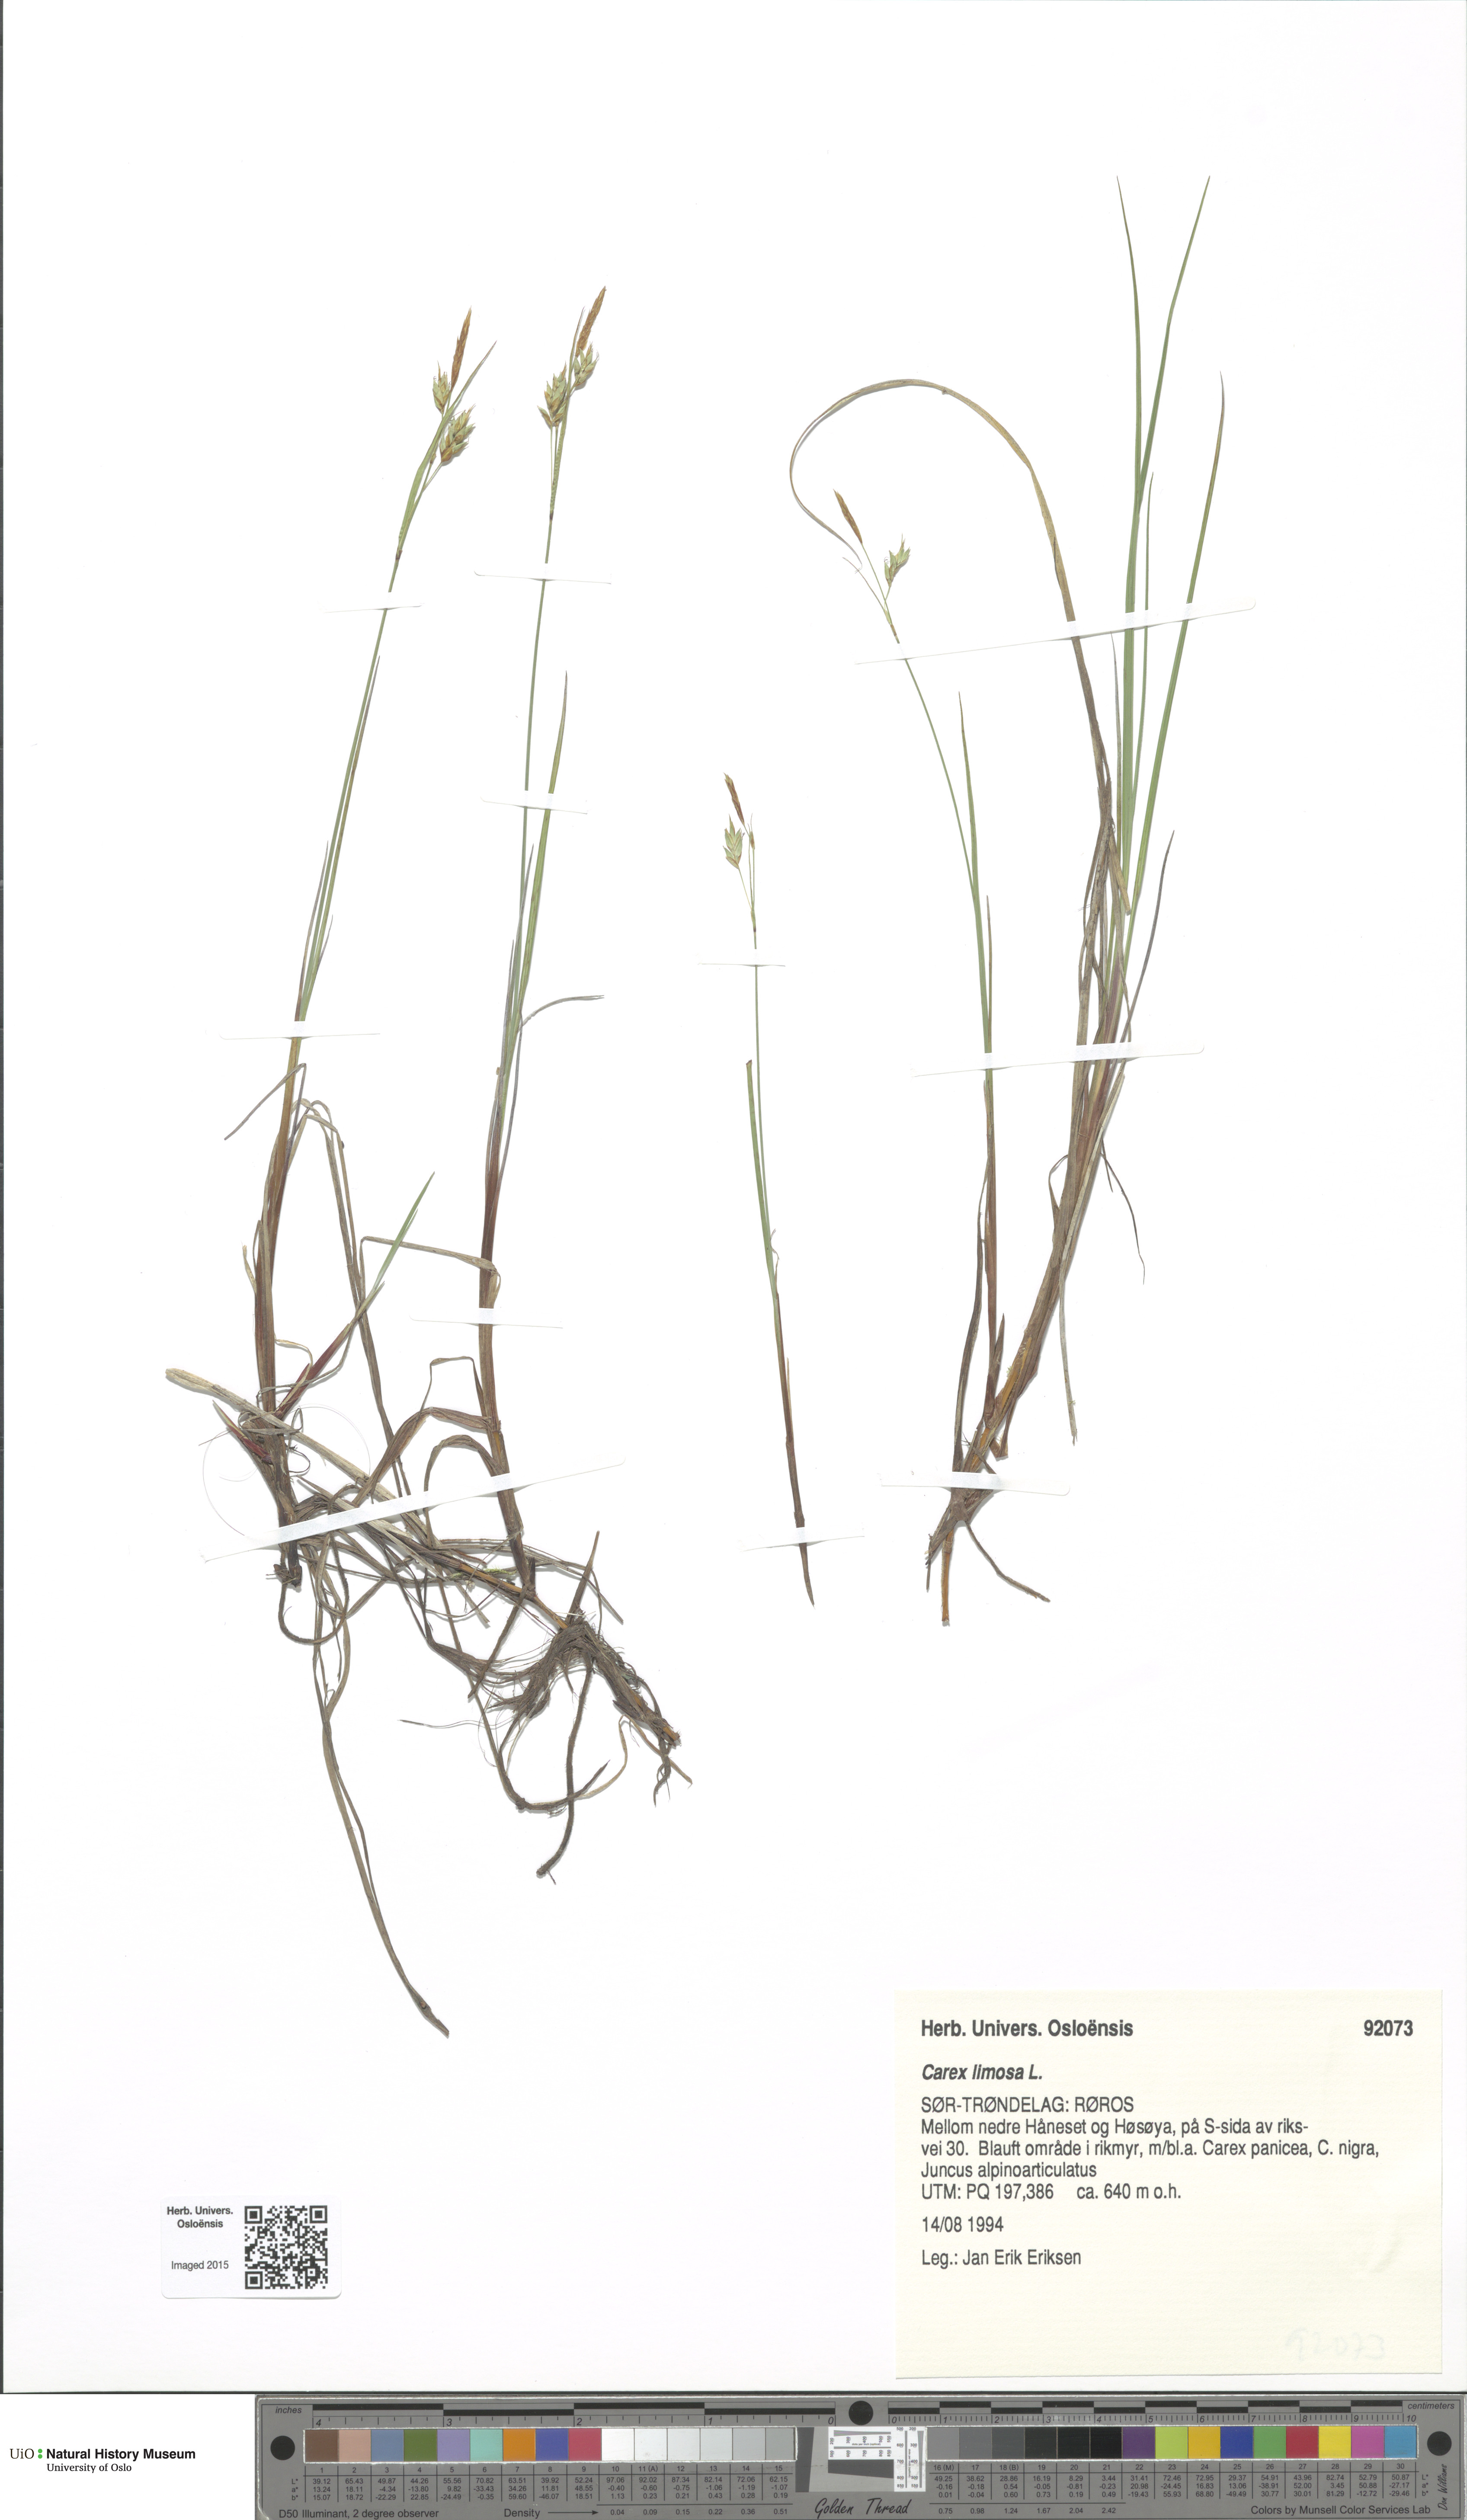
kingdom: Plantae
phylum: Tracheophyta
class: Liliopsida
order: Poales
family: Cyperaceae
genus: Carex
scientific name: Carex limosa
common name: Bog sedge
